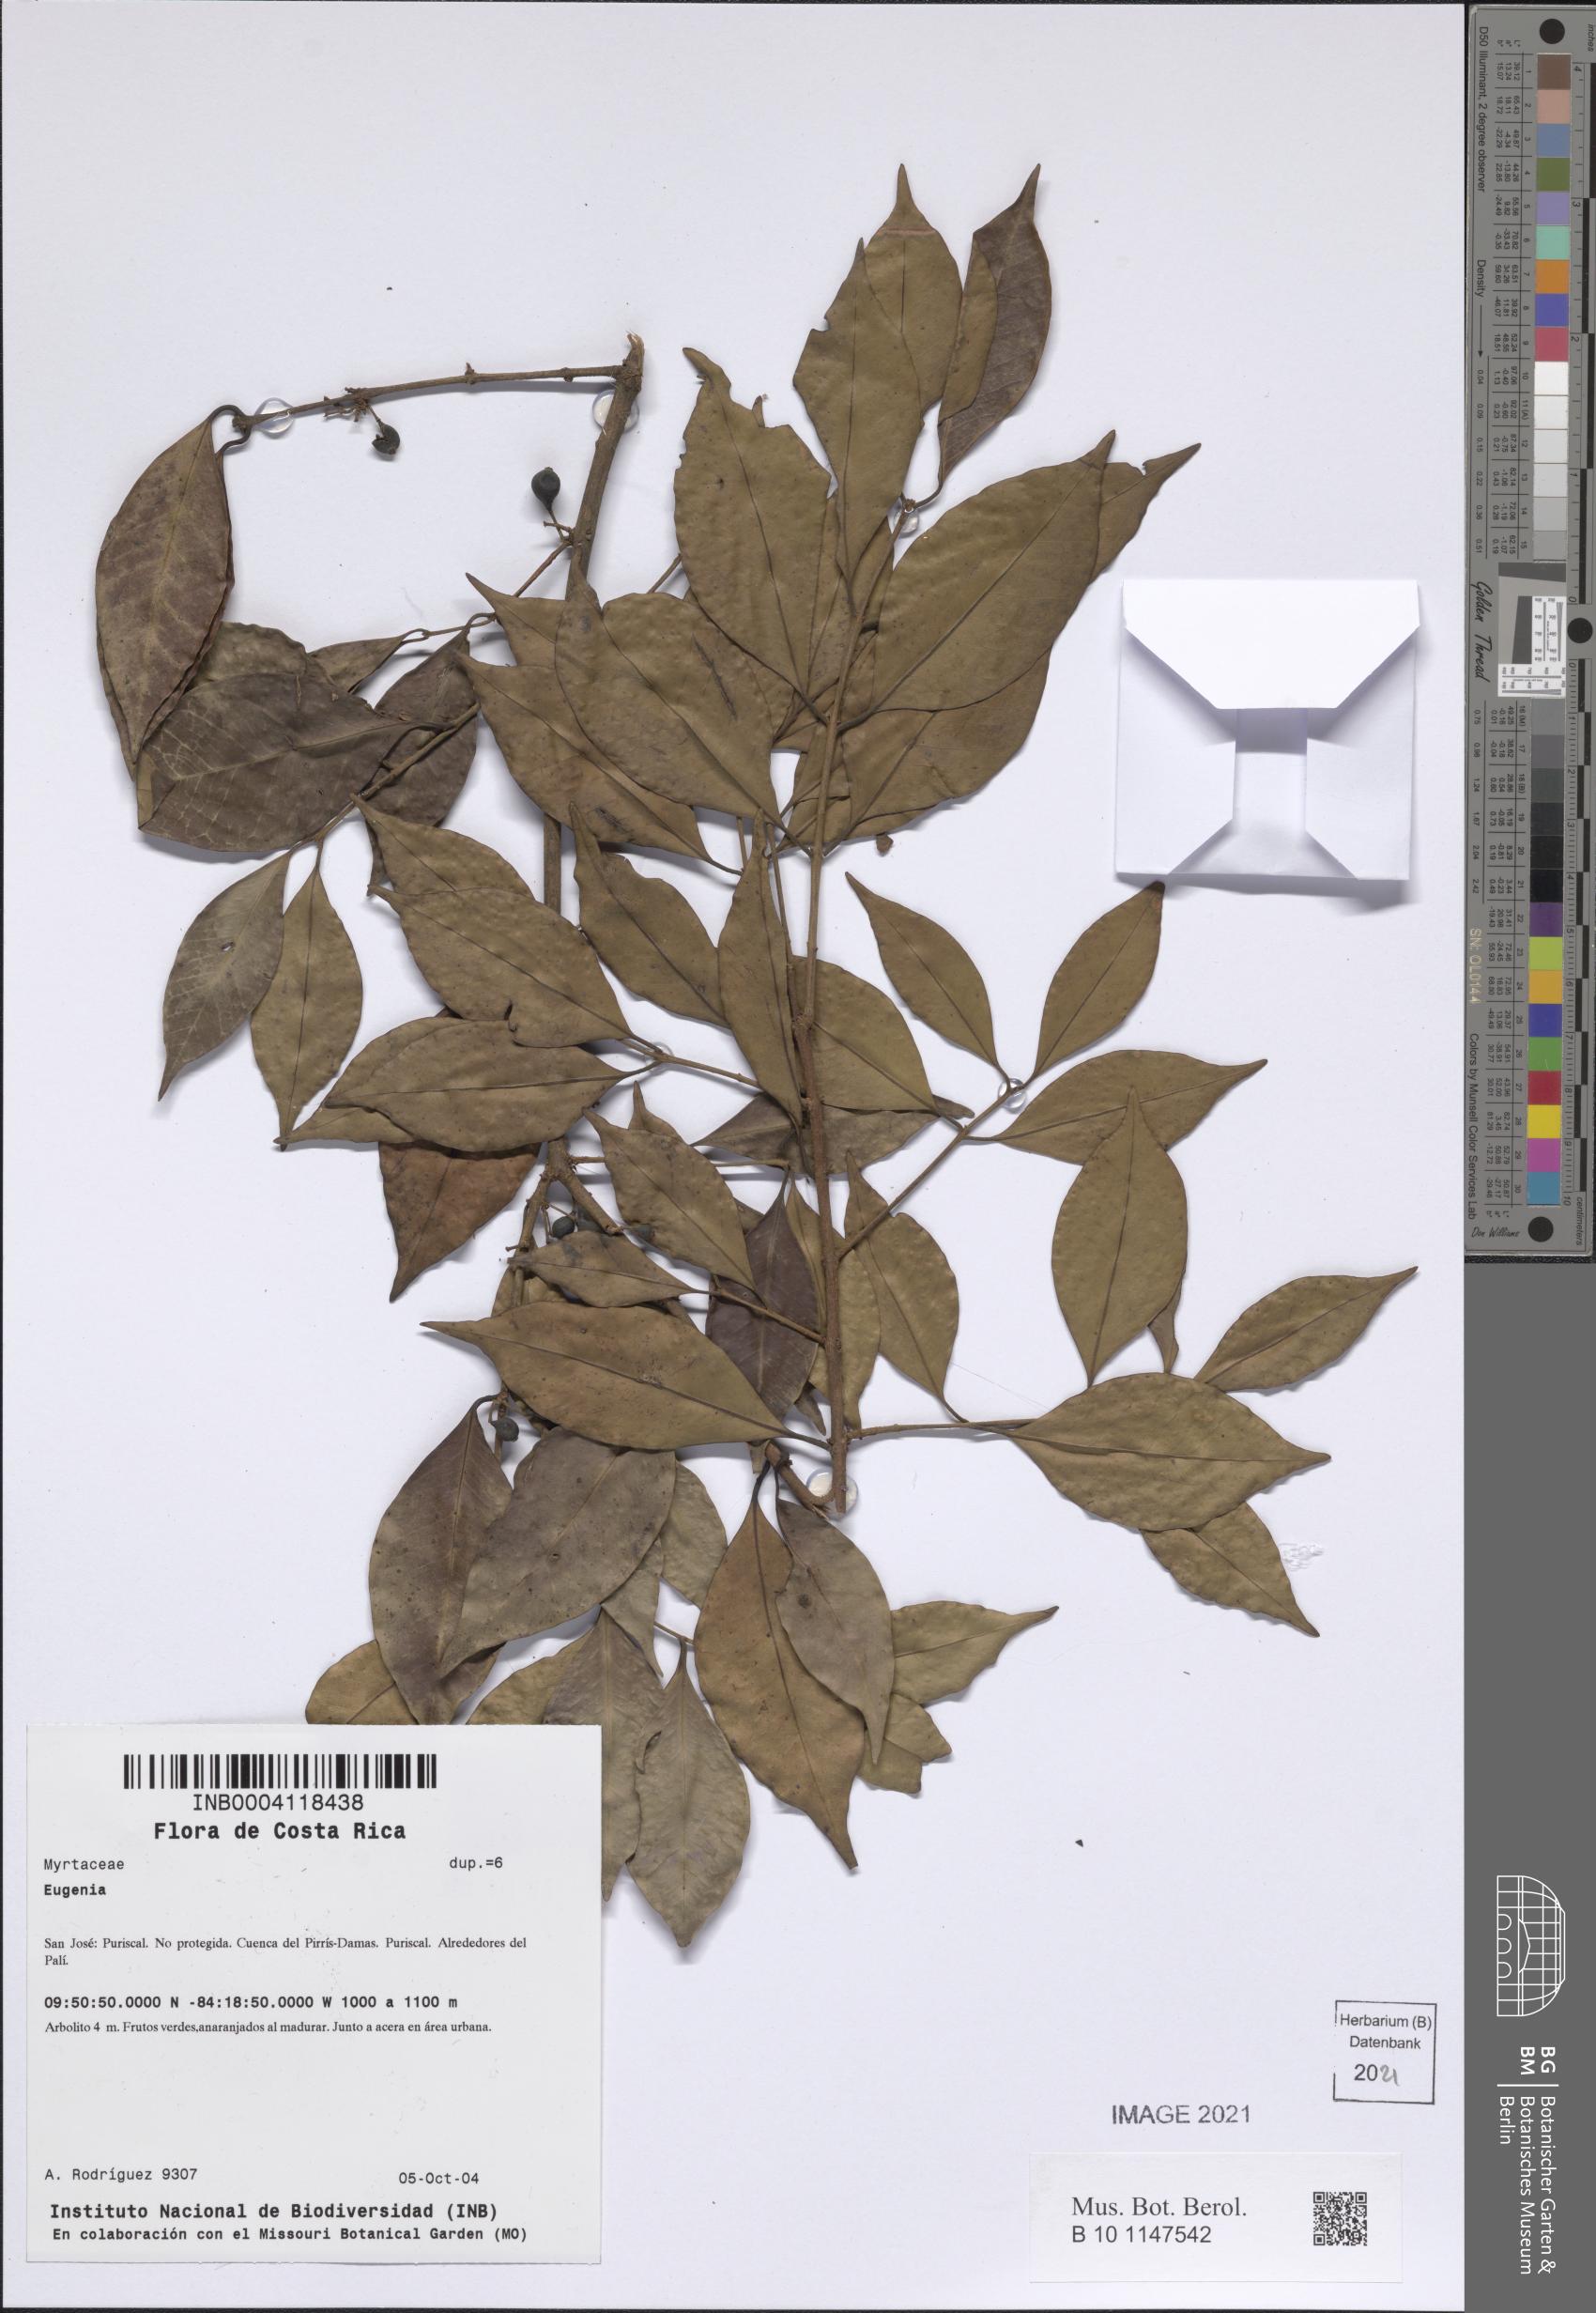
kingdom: Plantae
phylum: Tracheophyta
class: Magnoliopsida
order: Myrtales
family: Myrtaceae
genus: Eugenia
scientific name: Eugenia
